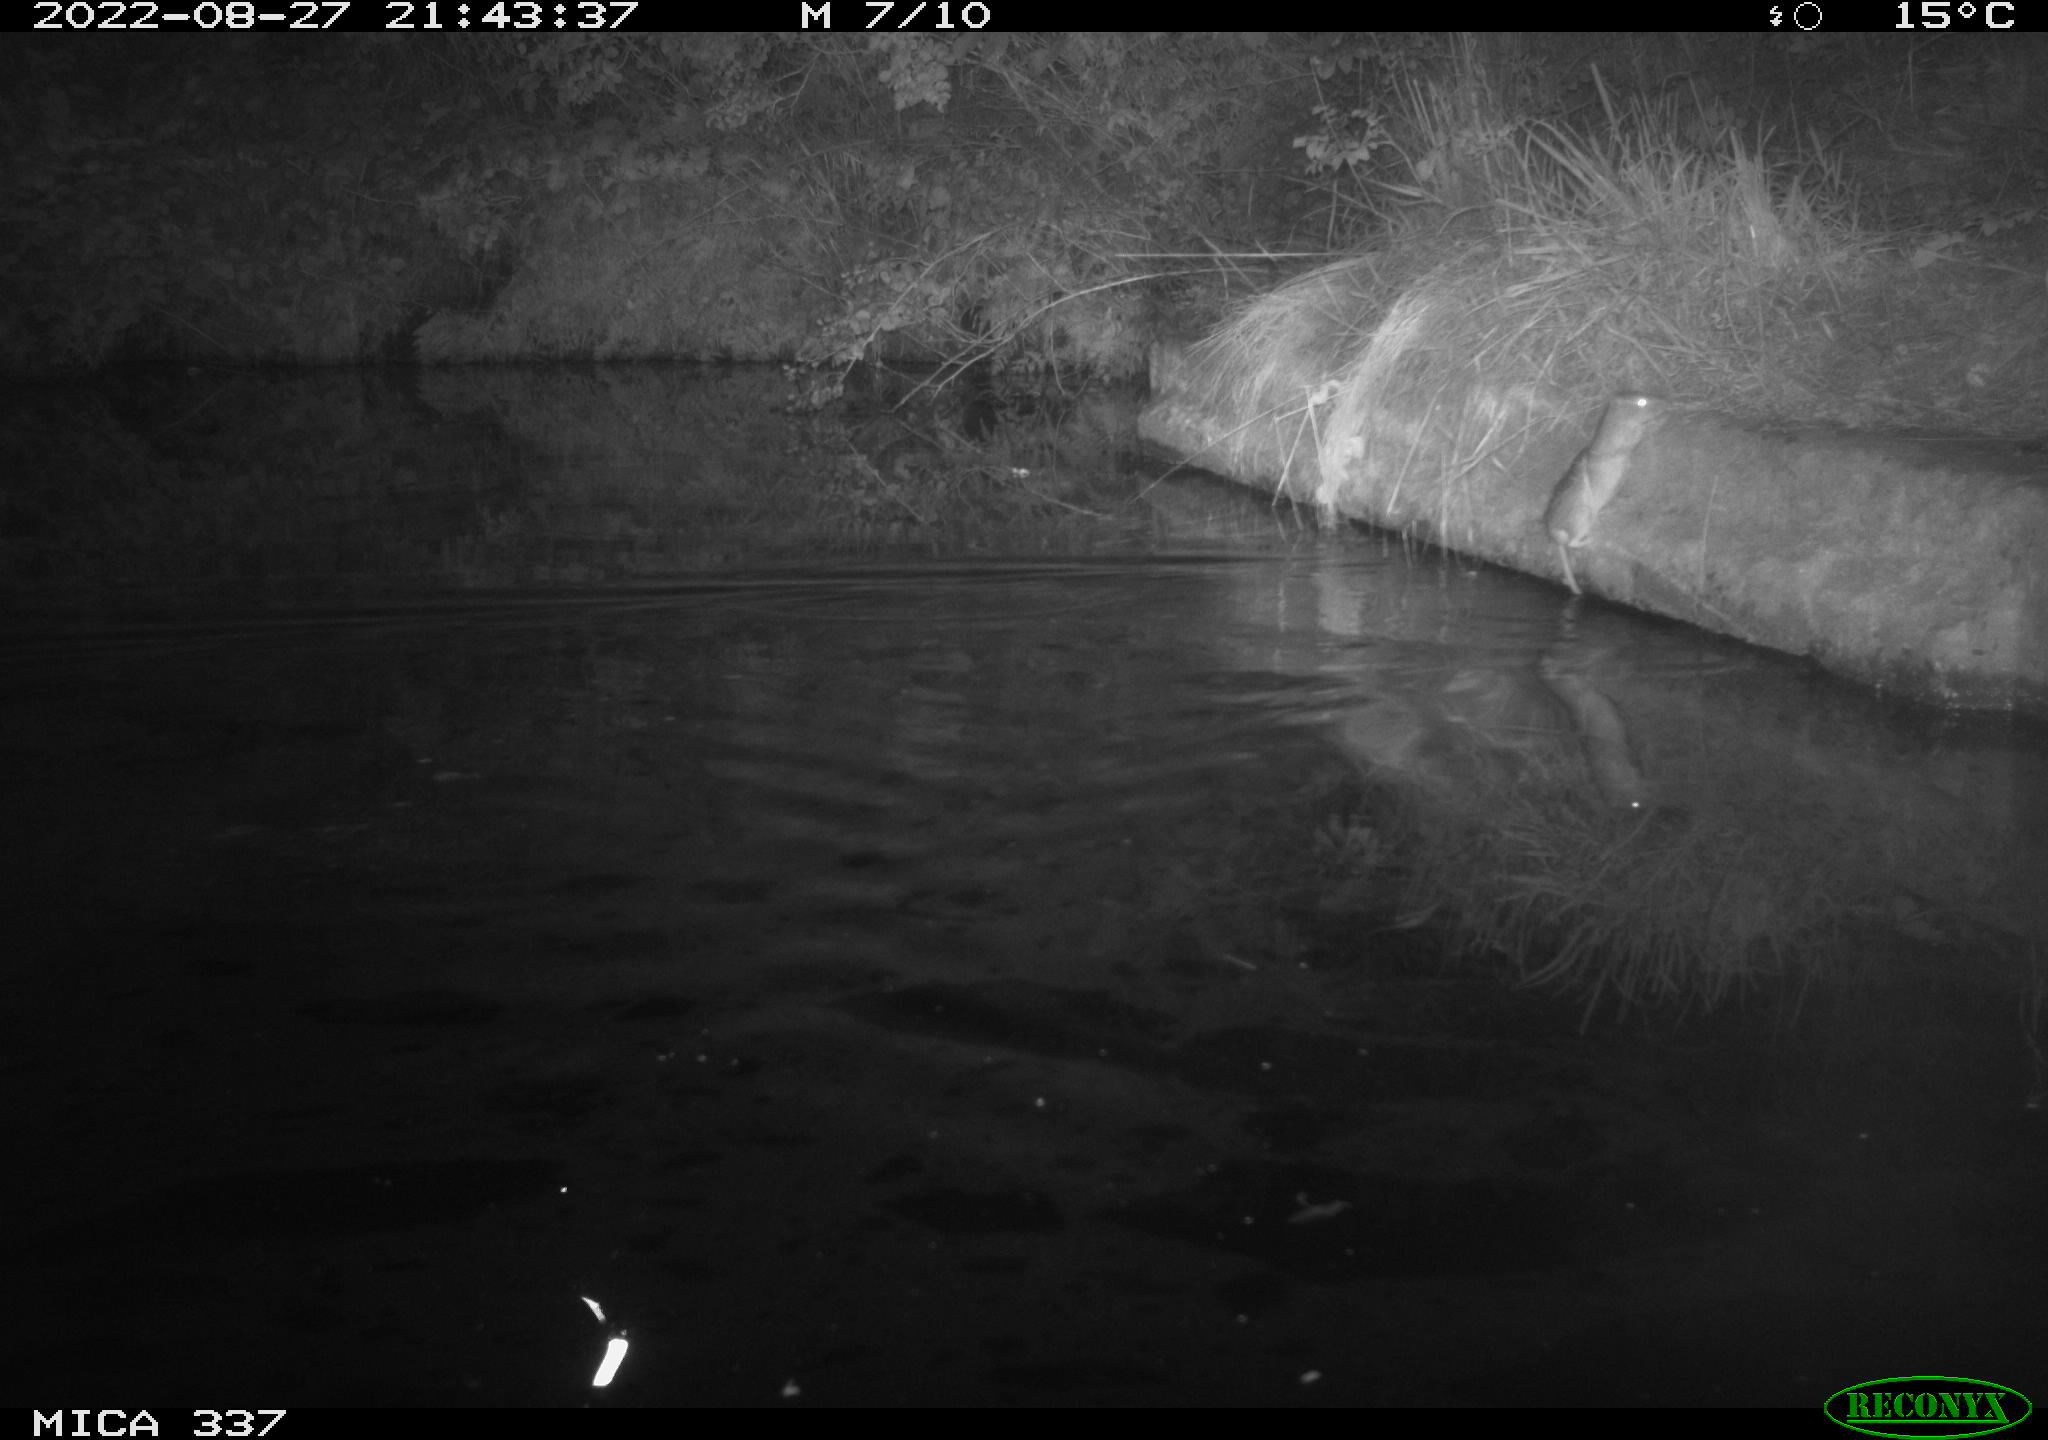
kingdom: Animalia
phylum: Chordata
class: Mammalia
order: Rodentia
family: Muridae
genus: Rattus
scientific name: Rattus norvegicus
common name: Brown rat
